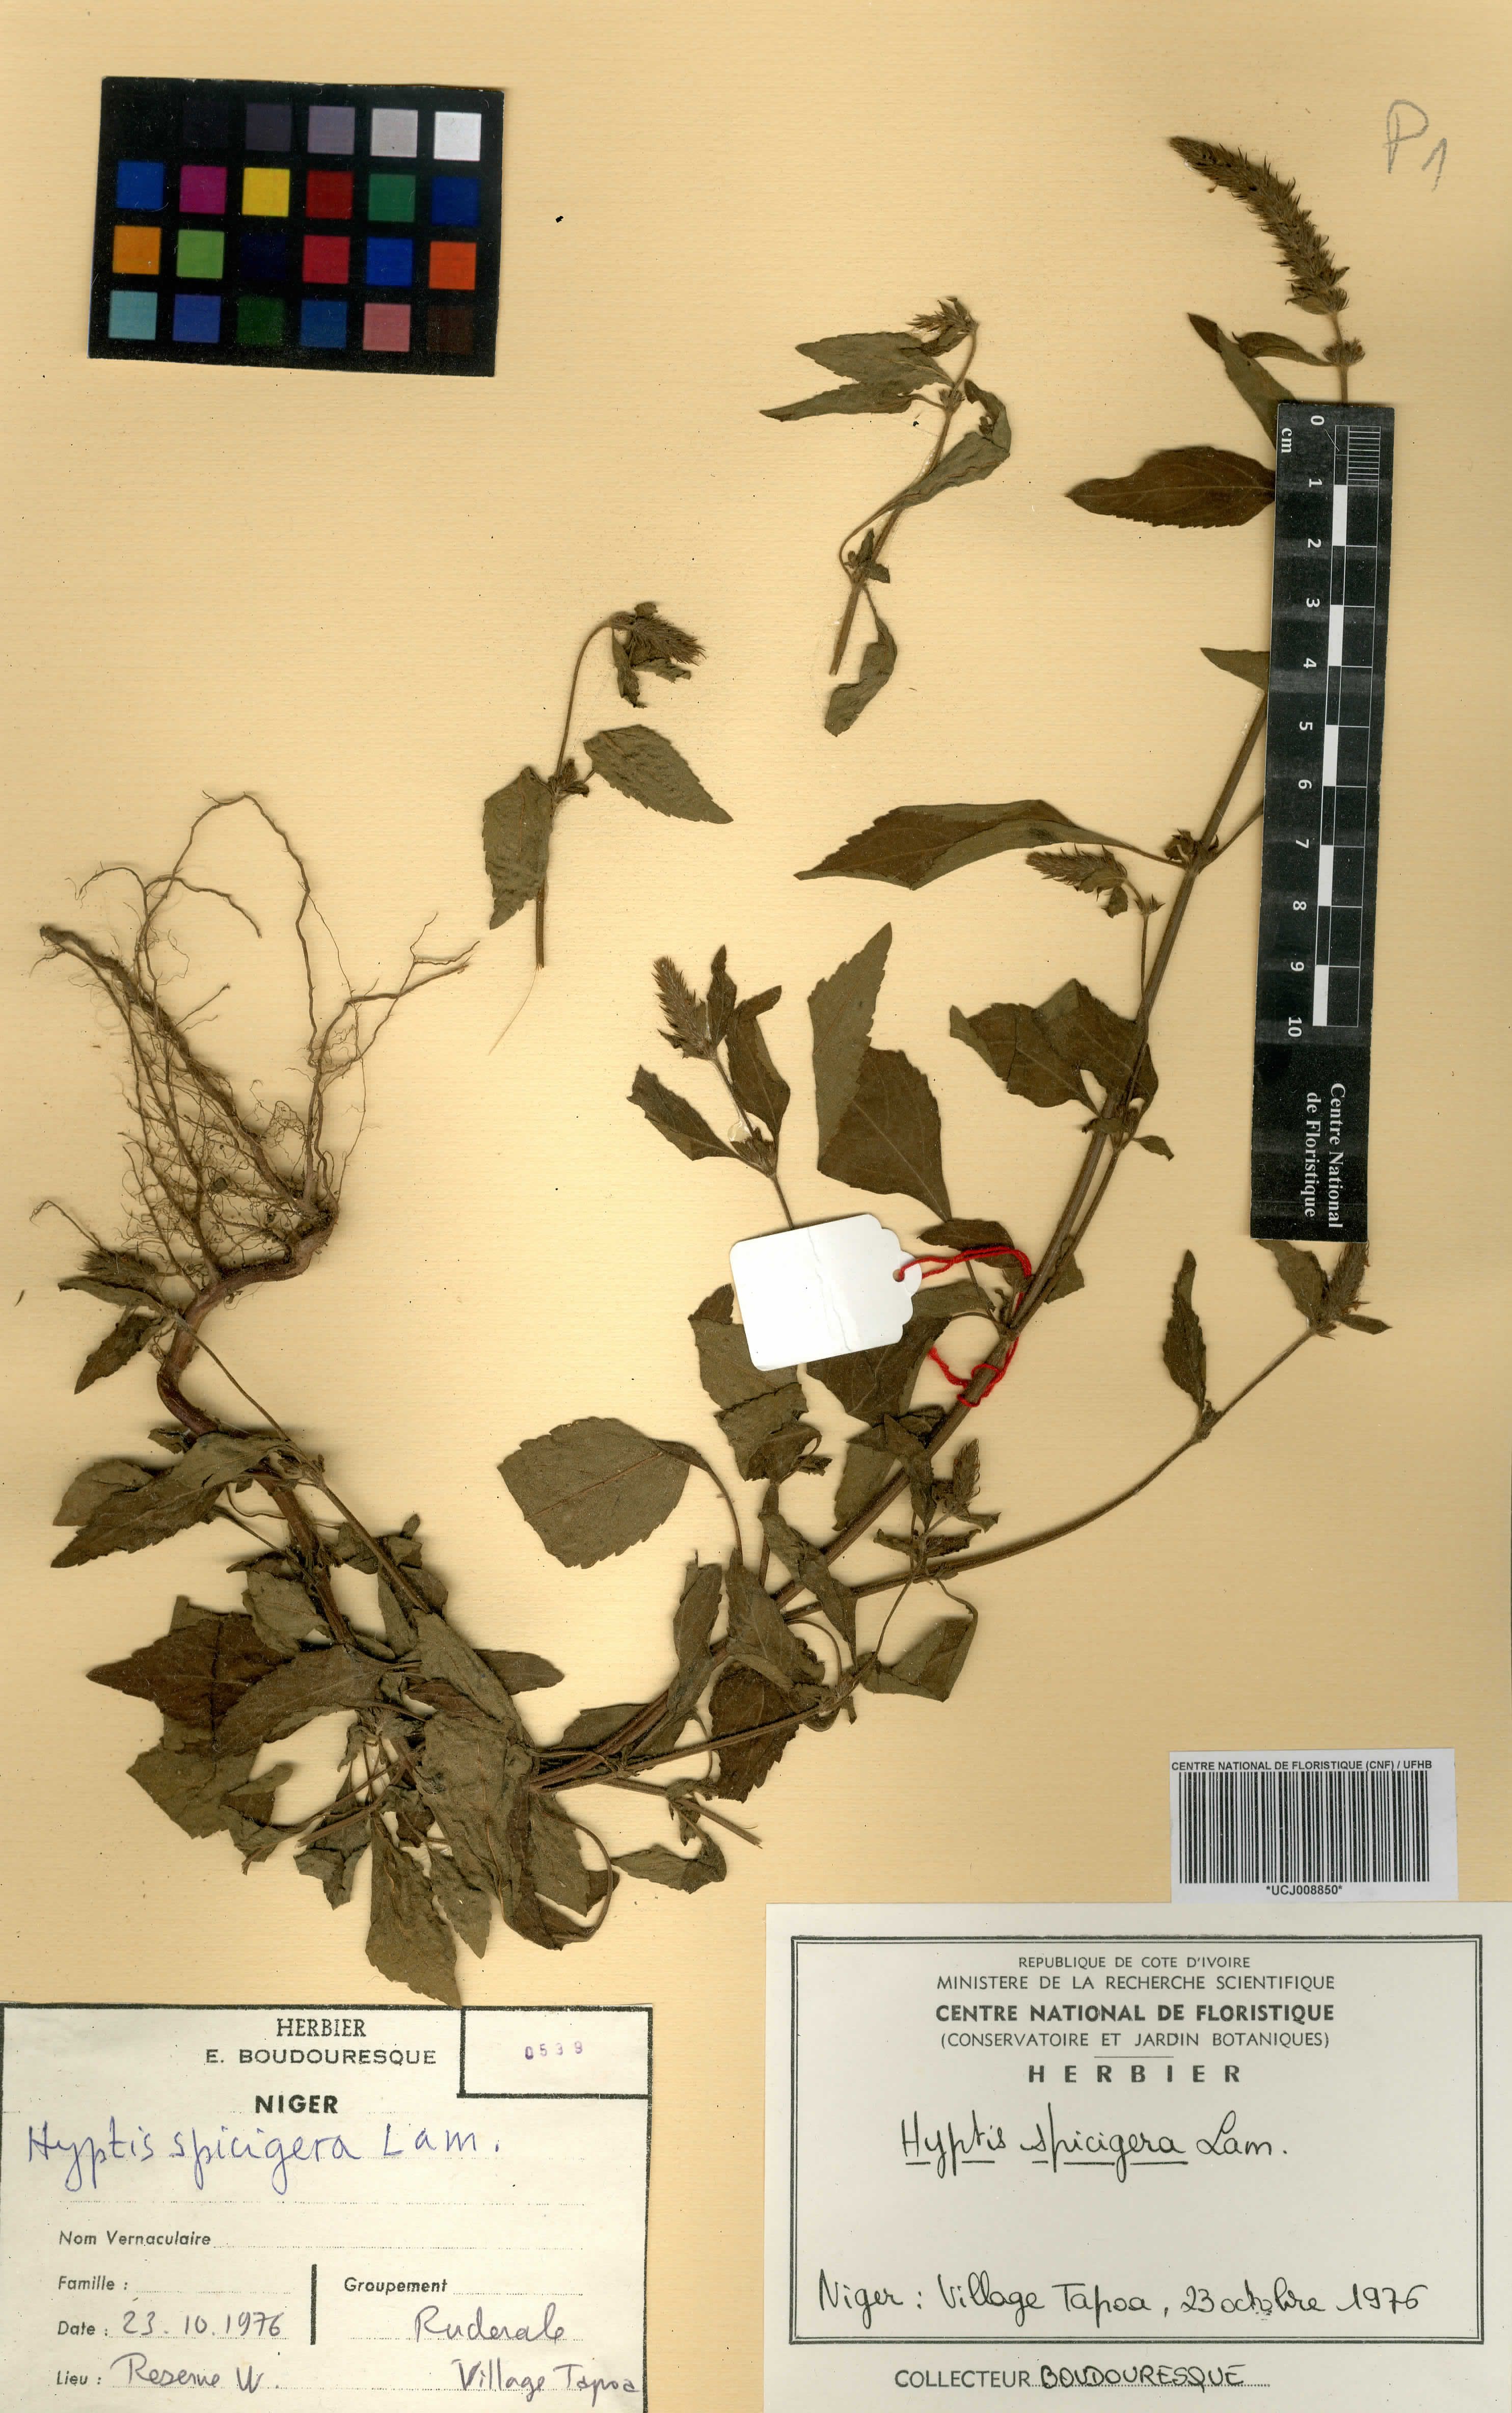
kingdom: Plantae
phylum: Tracheophyta
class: Magnoliopsida
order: Lamiales
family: Lamiaceae
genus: Cantinoa
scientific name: Cantinoa americana
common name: Black-sesame
